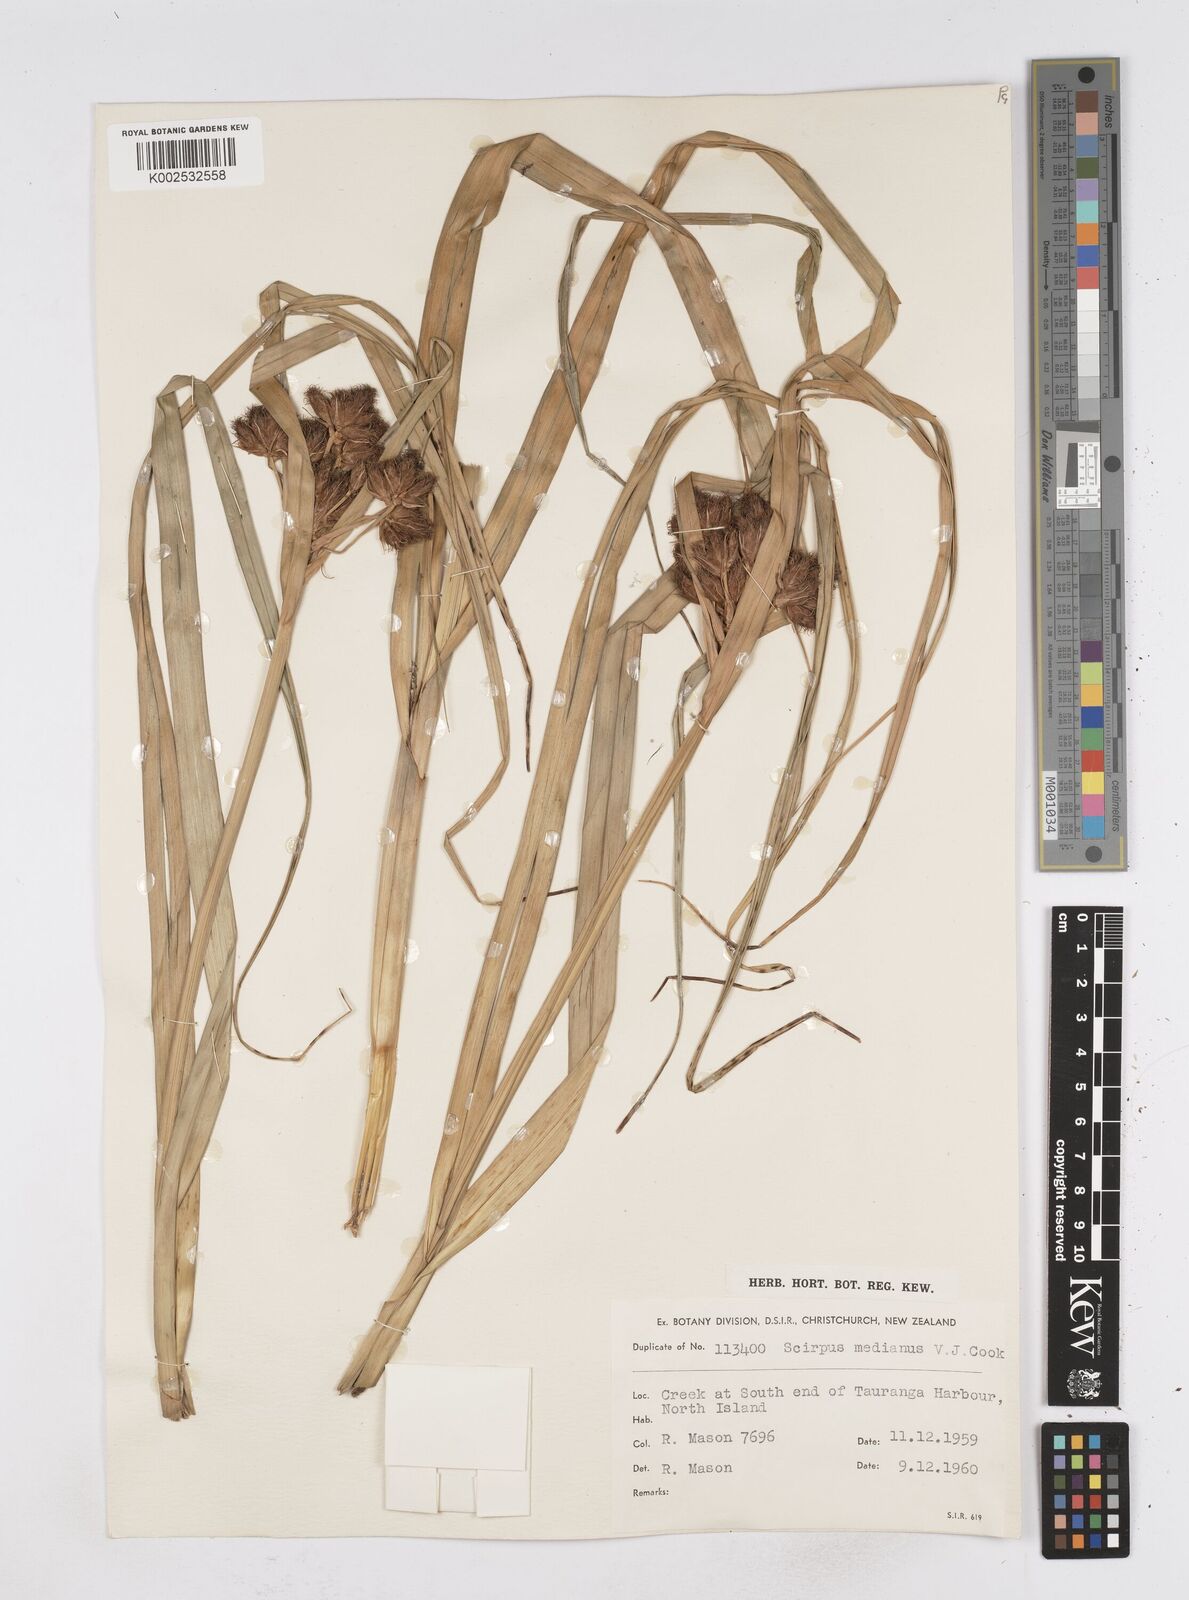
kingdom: Plantae
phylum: Tracheophyta
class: Liliopsida
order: Poales
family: Cyperaceae
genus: Bolboschoenus
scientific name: Bolboschoenus medianus
